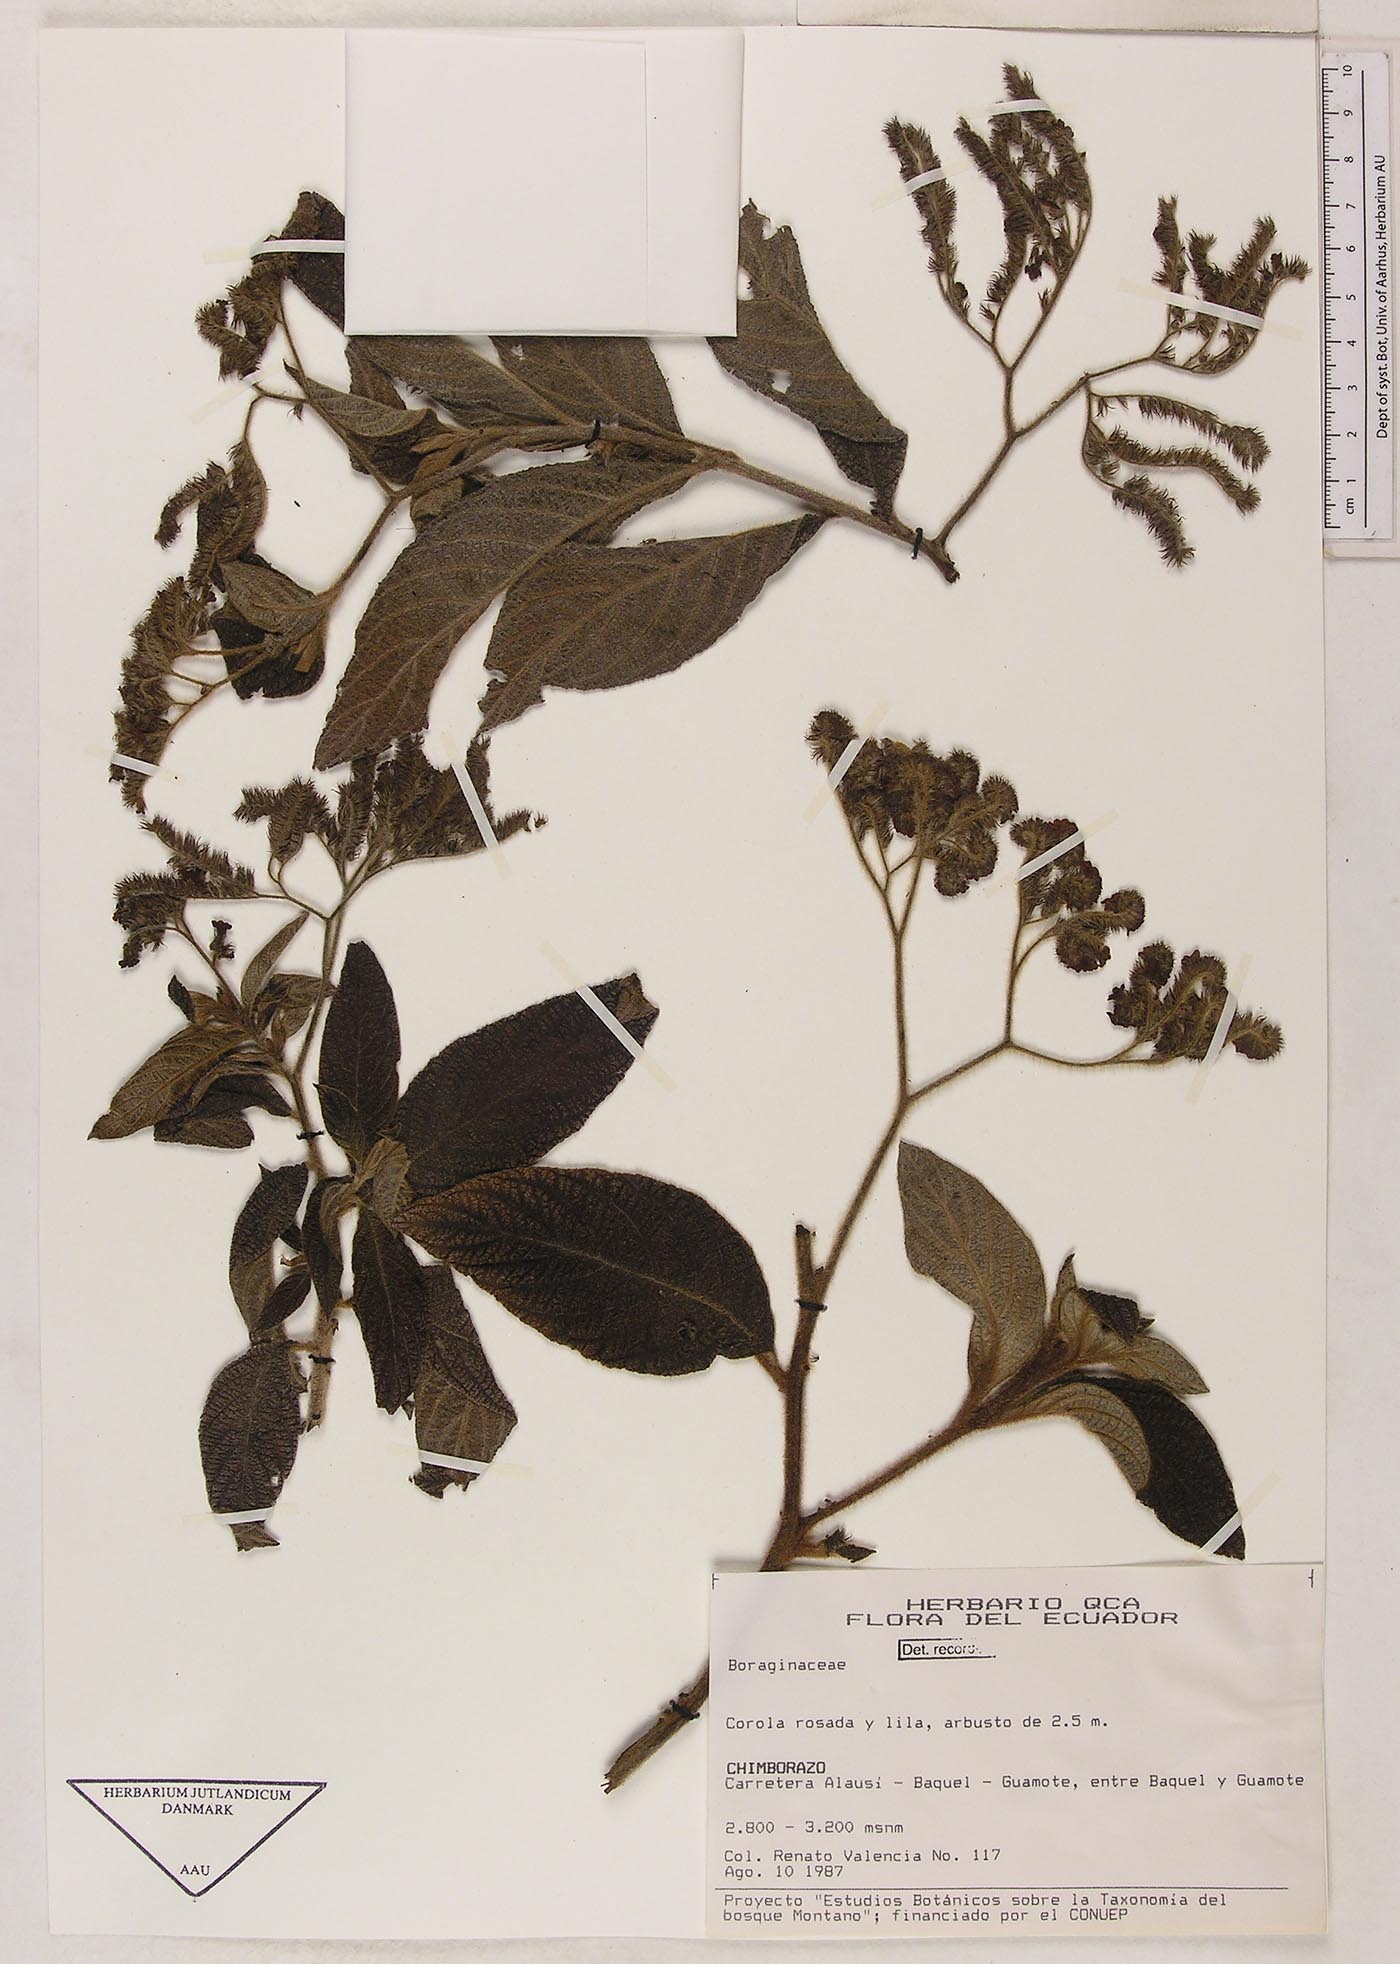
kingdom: Plantae
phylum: Tracheophyta
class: Magnoliopsida
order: Boraginales
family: Heliotropiaceae
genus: Heliotropium
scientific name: Heliotropium submolle
